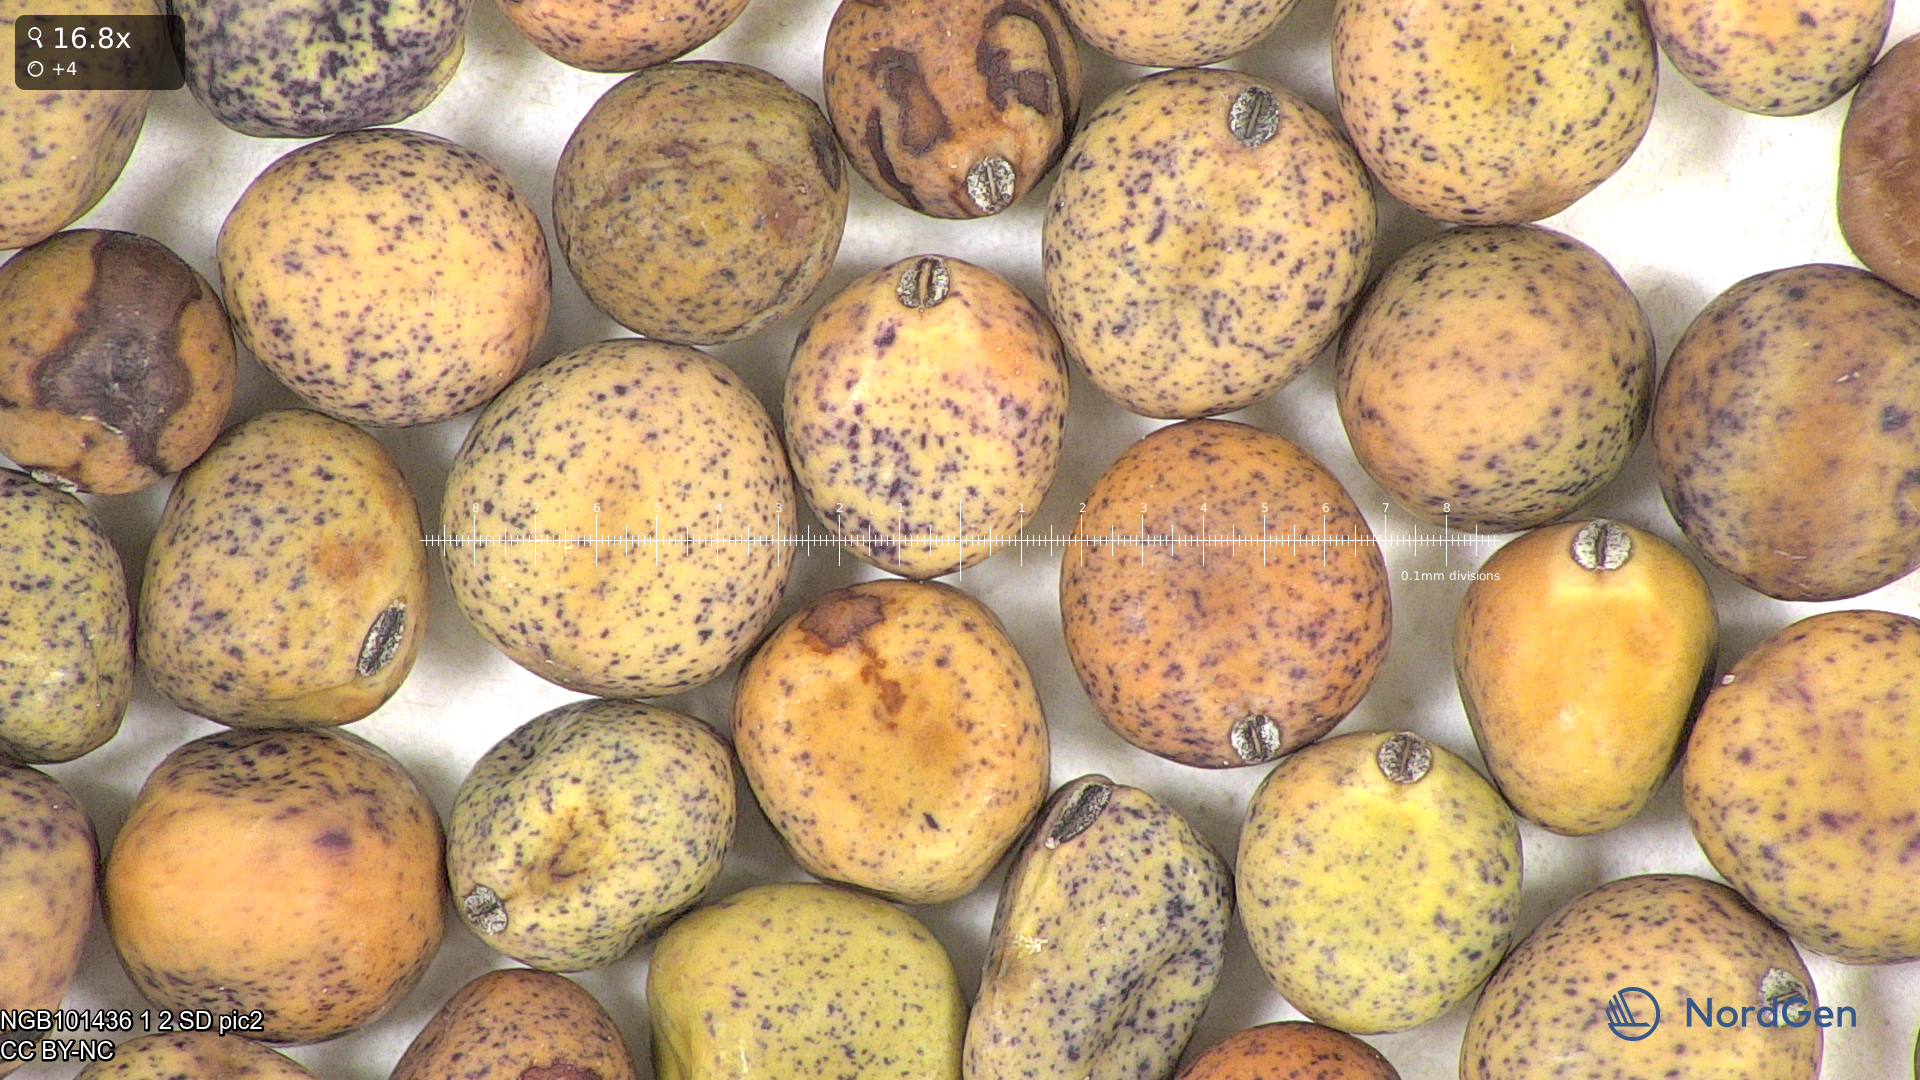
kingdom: Plantae
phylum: Tracheophyta
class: Magnoliopsida
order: Fabales
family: Fabaceae
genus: Lathyrus
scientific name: Lathyrus oleraceus
